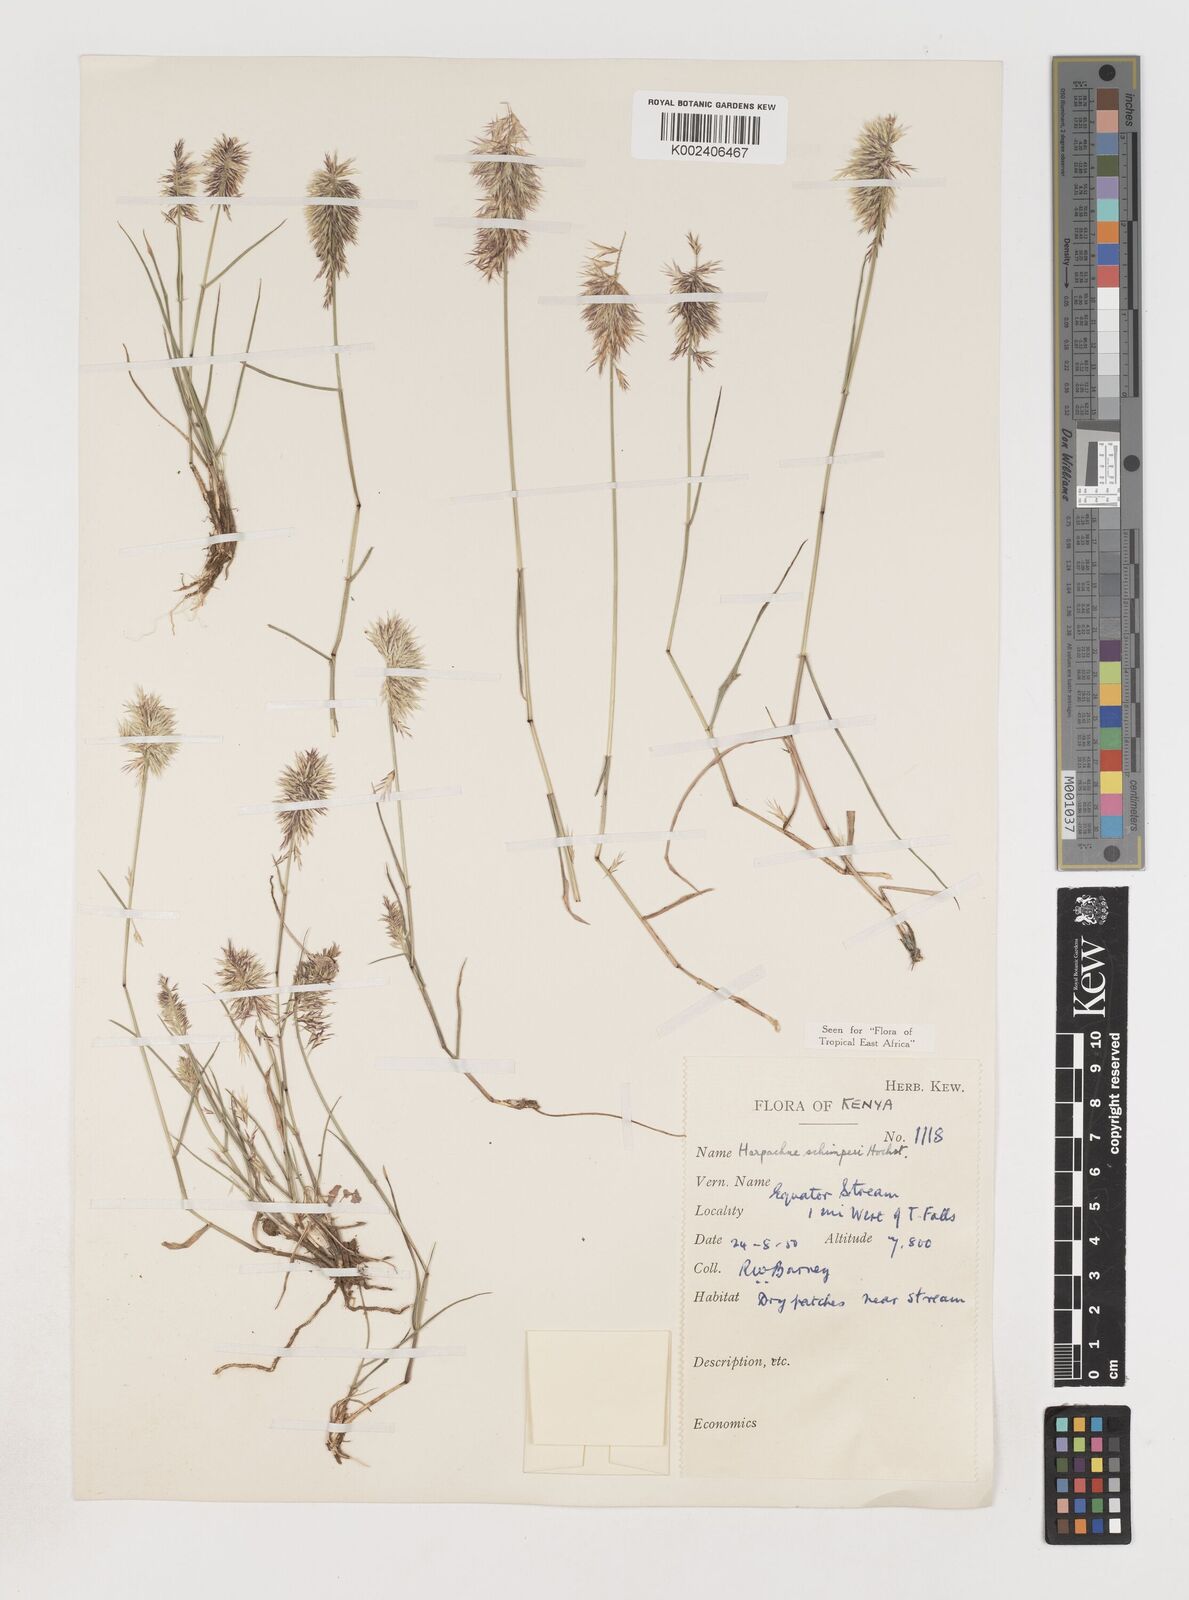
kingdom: Plantae
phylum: Tracheophyta
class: Liliopsida
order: Poales
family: Poaceae
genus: Harpachne
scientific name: Harpachne schimperi
